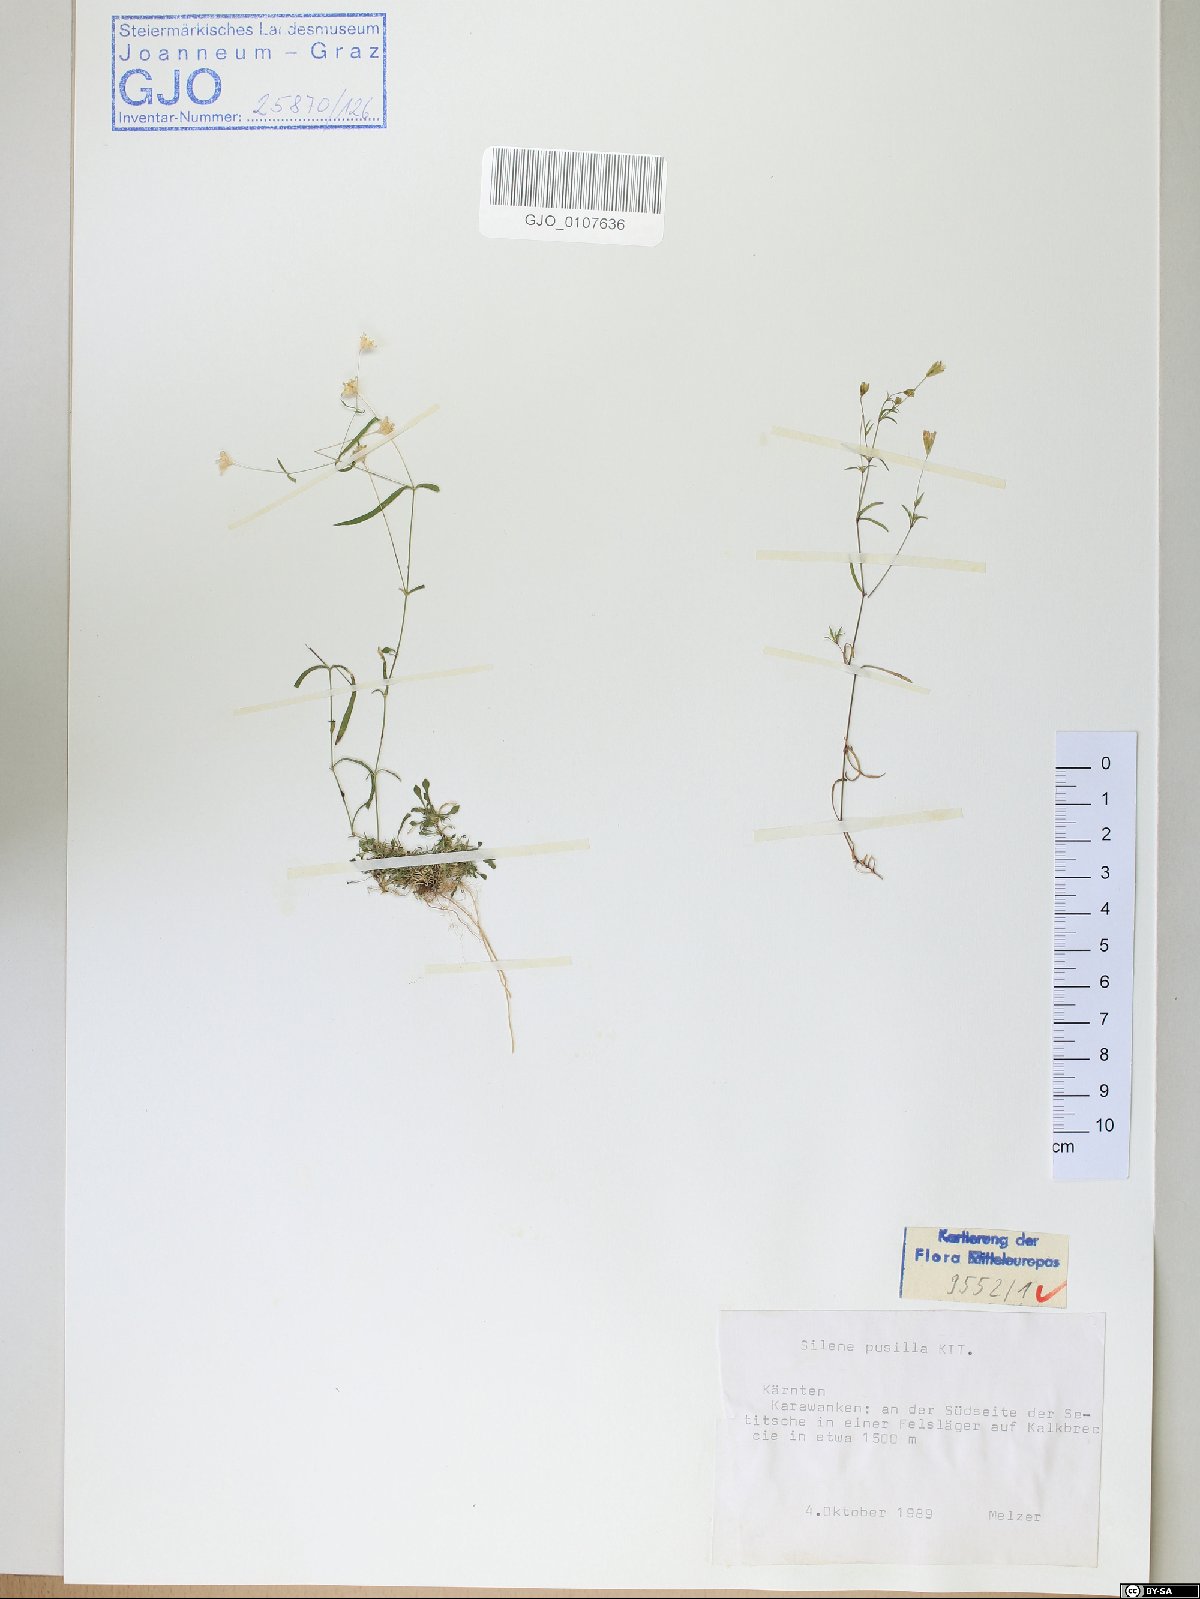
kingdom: Plantae
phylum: Tracheophyta
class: Magnoliopsida
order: Caryophyllales
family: Caryophyllaceae
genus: Heliosperma
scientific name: Heliosperma pusillum
